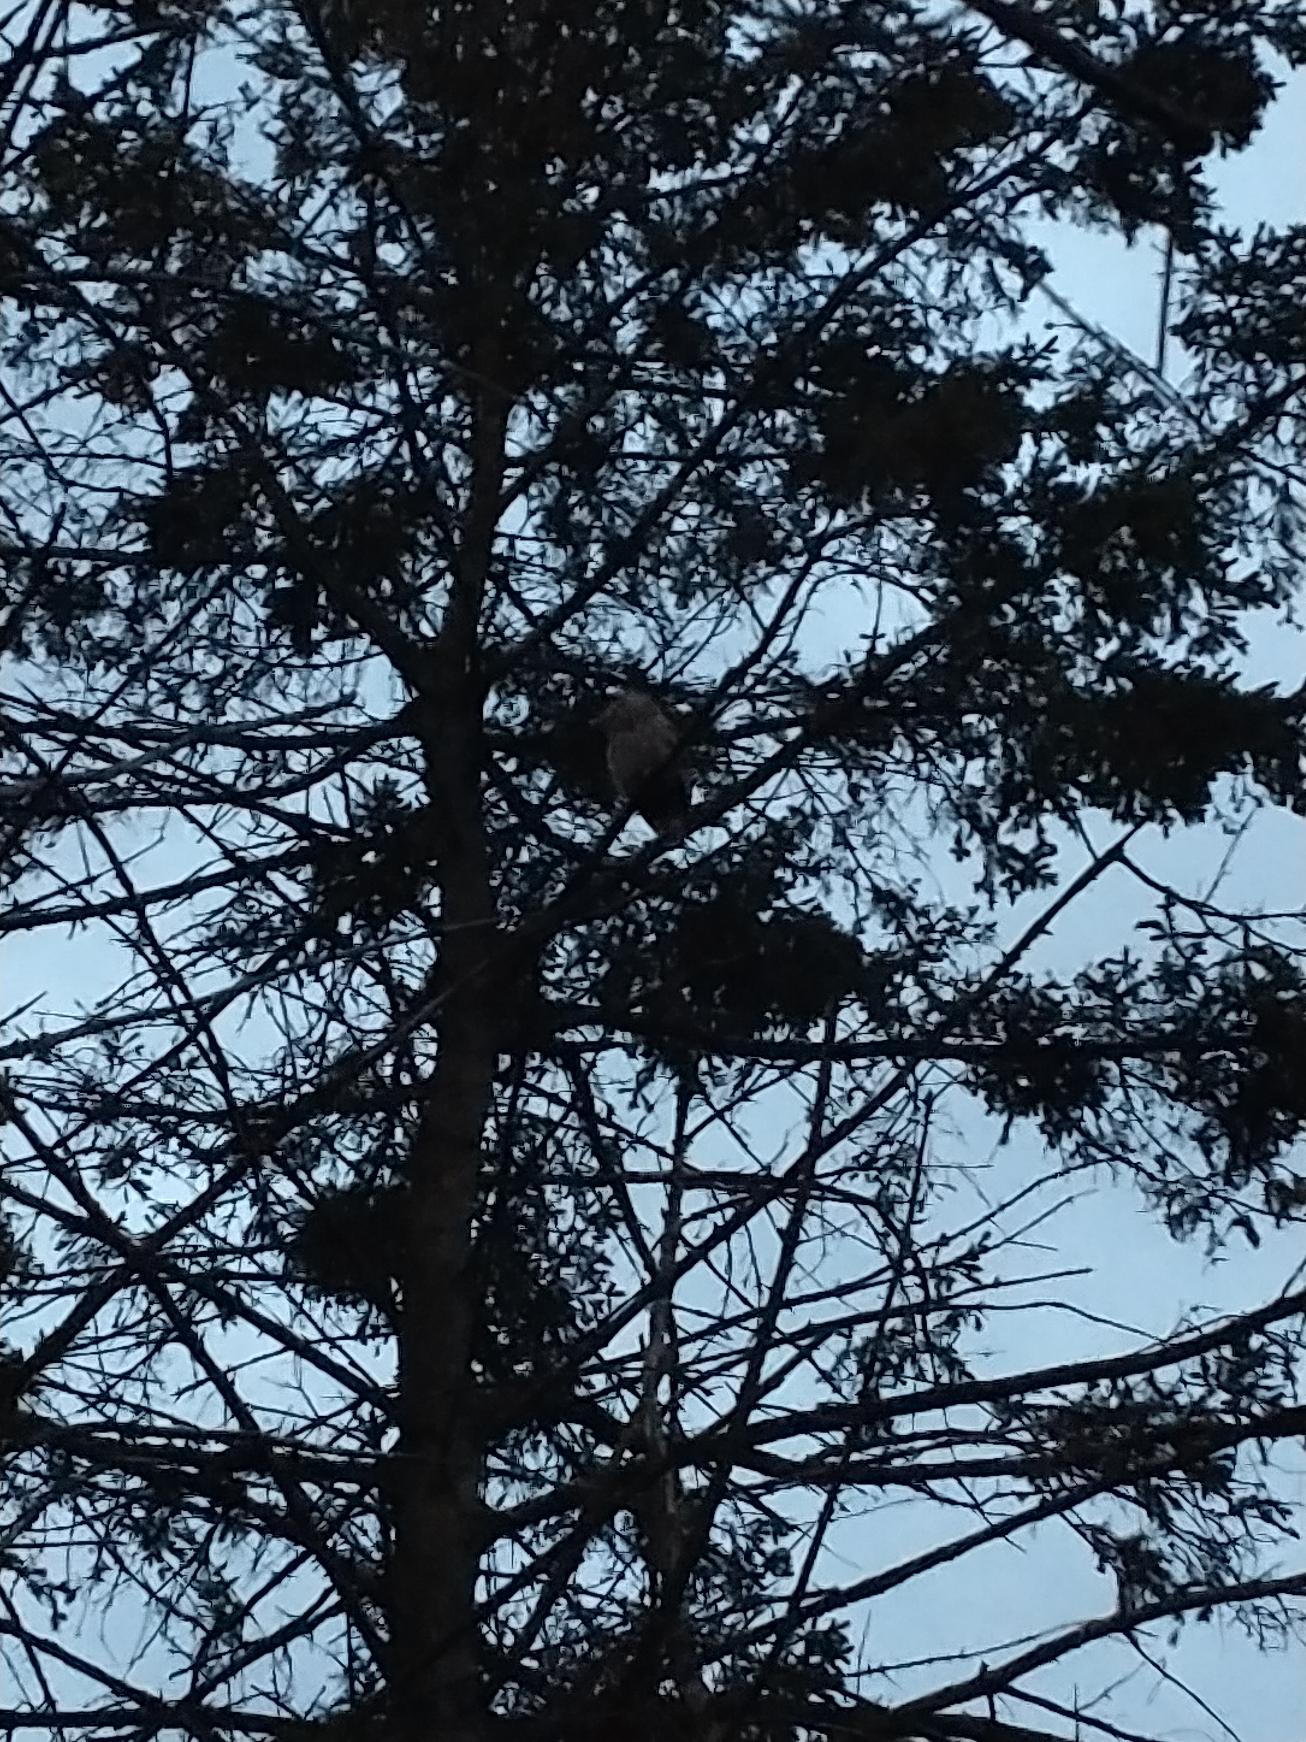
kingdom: Animalia
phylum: Chordata
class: Aves
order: Strigiformes
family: Strigidae
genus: Strix
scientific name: Strix aluco
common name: Natugle
